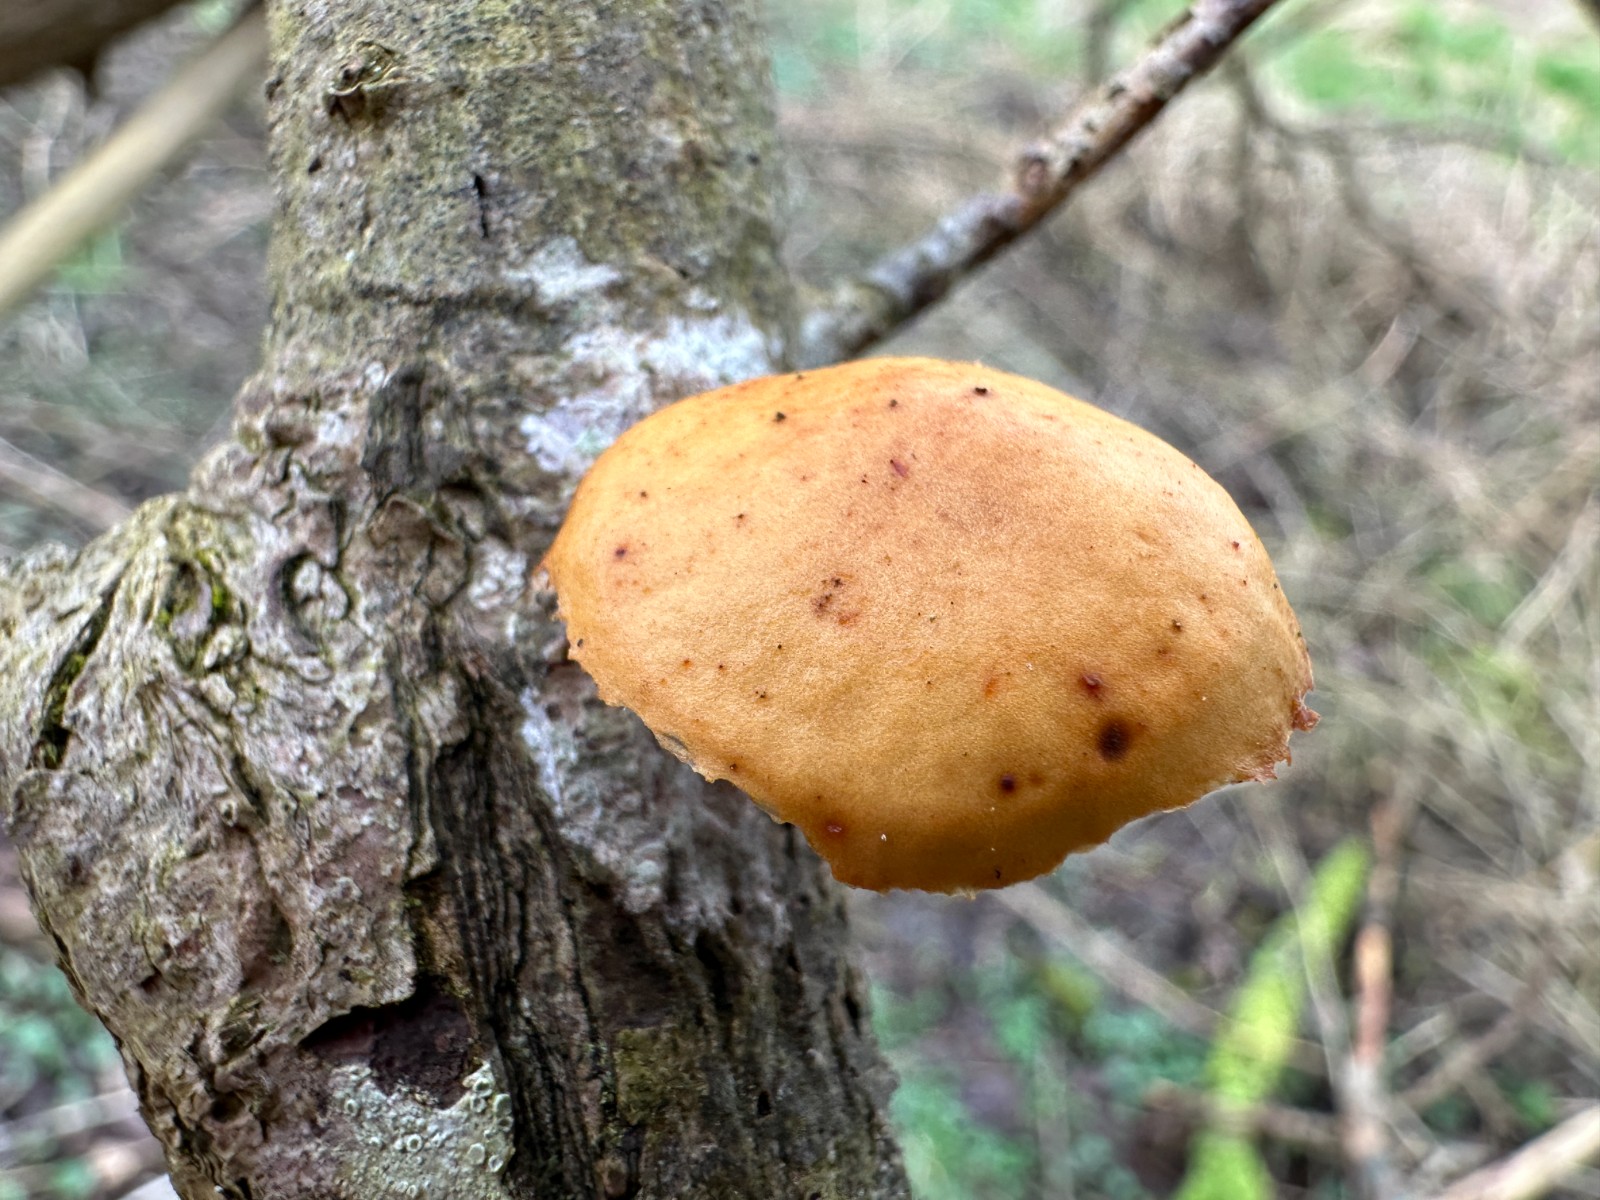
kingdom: Fungi
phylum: Basidiomycota
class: Agaricomycetes
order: Agaricales
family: Physalacriaceae
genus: Flammulina
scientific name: Flammulina
